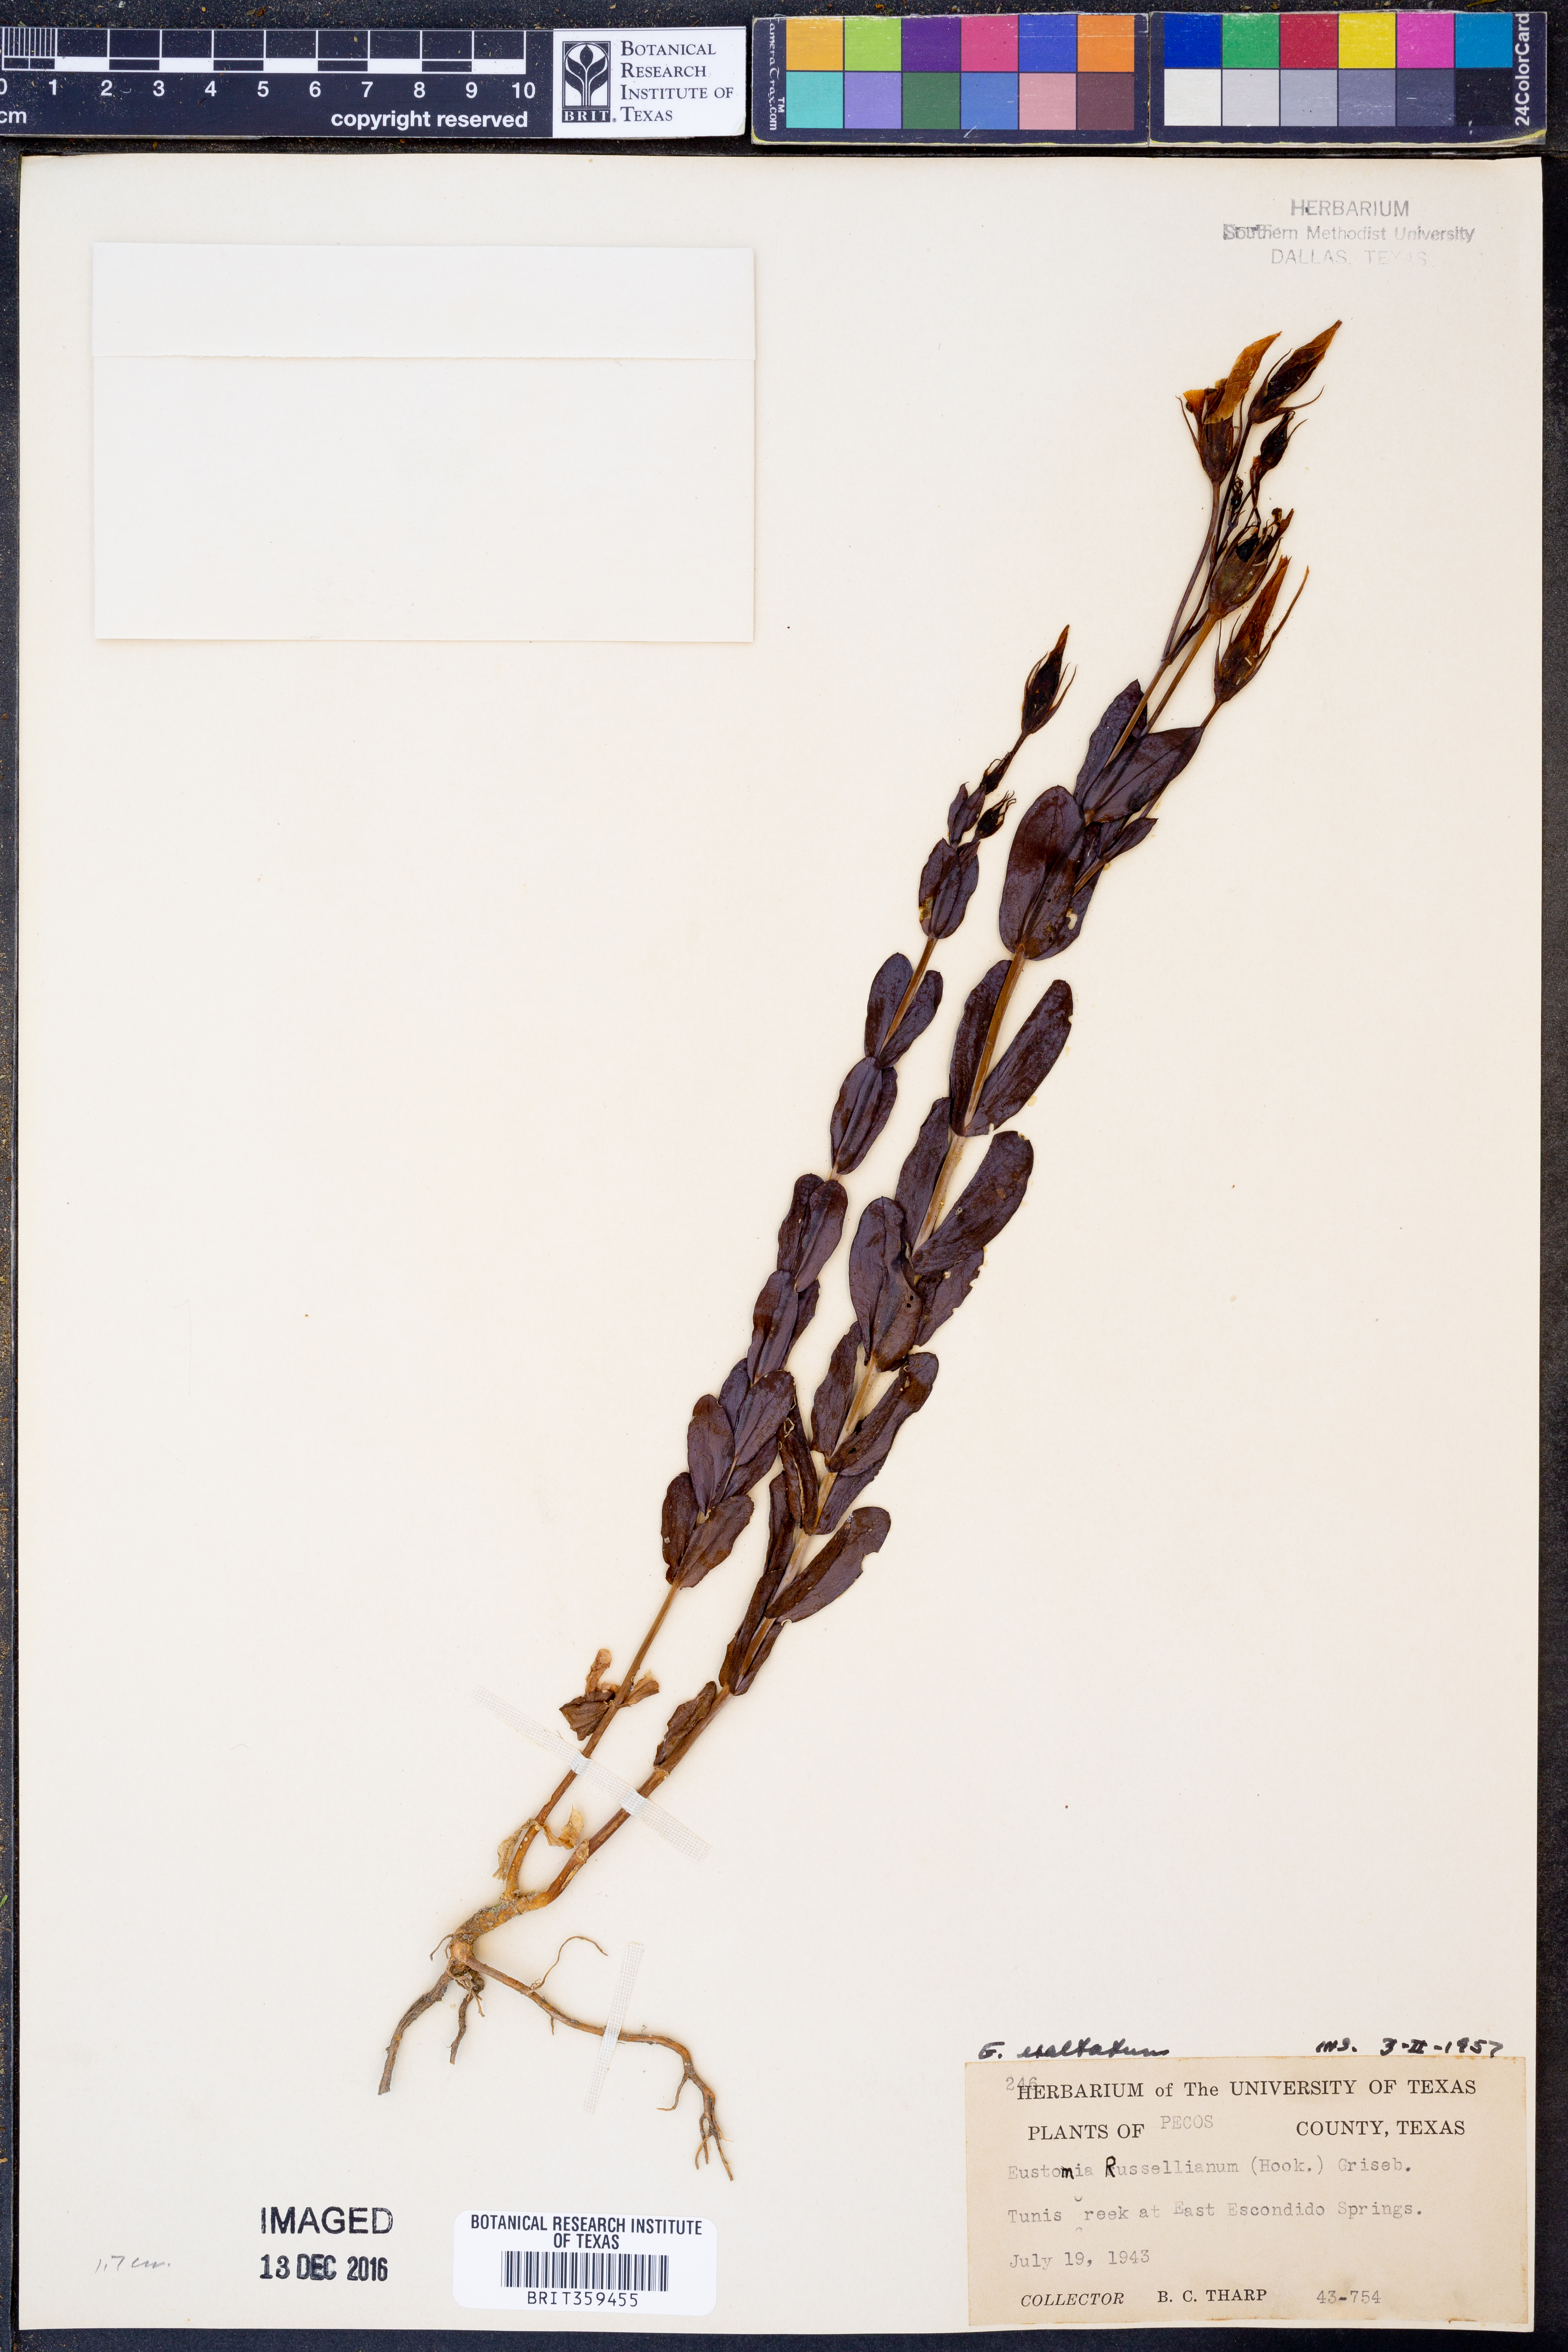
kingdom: Plantae
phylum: Tracheophyta
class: Magnoliopsida
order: Gentianales
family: Gentianaceae
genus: Eustoma
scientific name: Eustoma exaltatum
